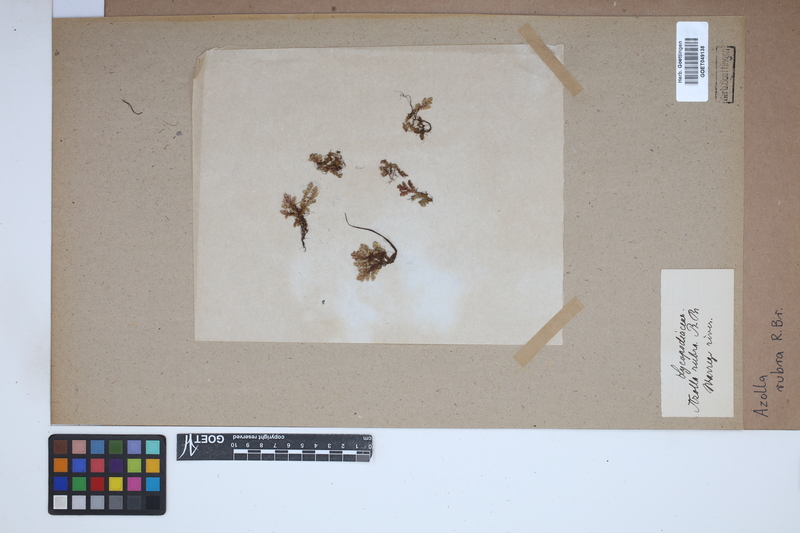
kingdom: Plantae
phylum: Tracheophyta
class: Polypodiopsida
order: Salviniales
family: Salviniaceae
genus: Azolla
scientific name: Azolla rubra
